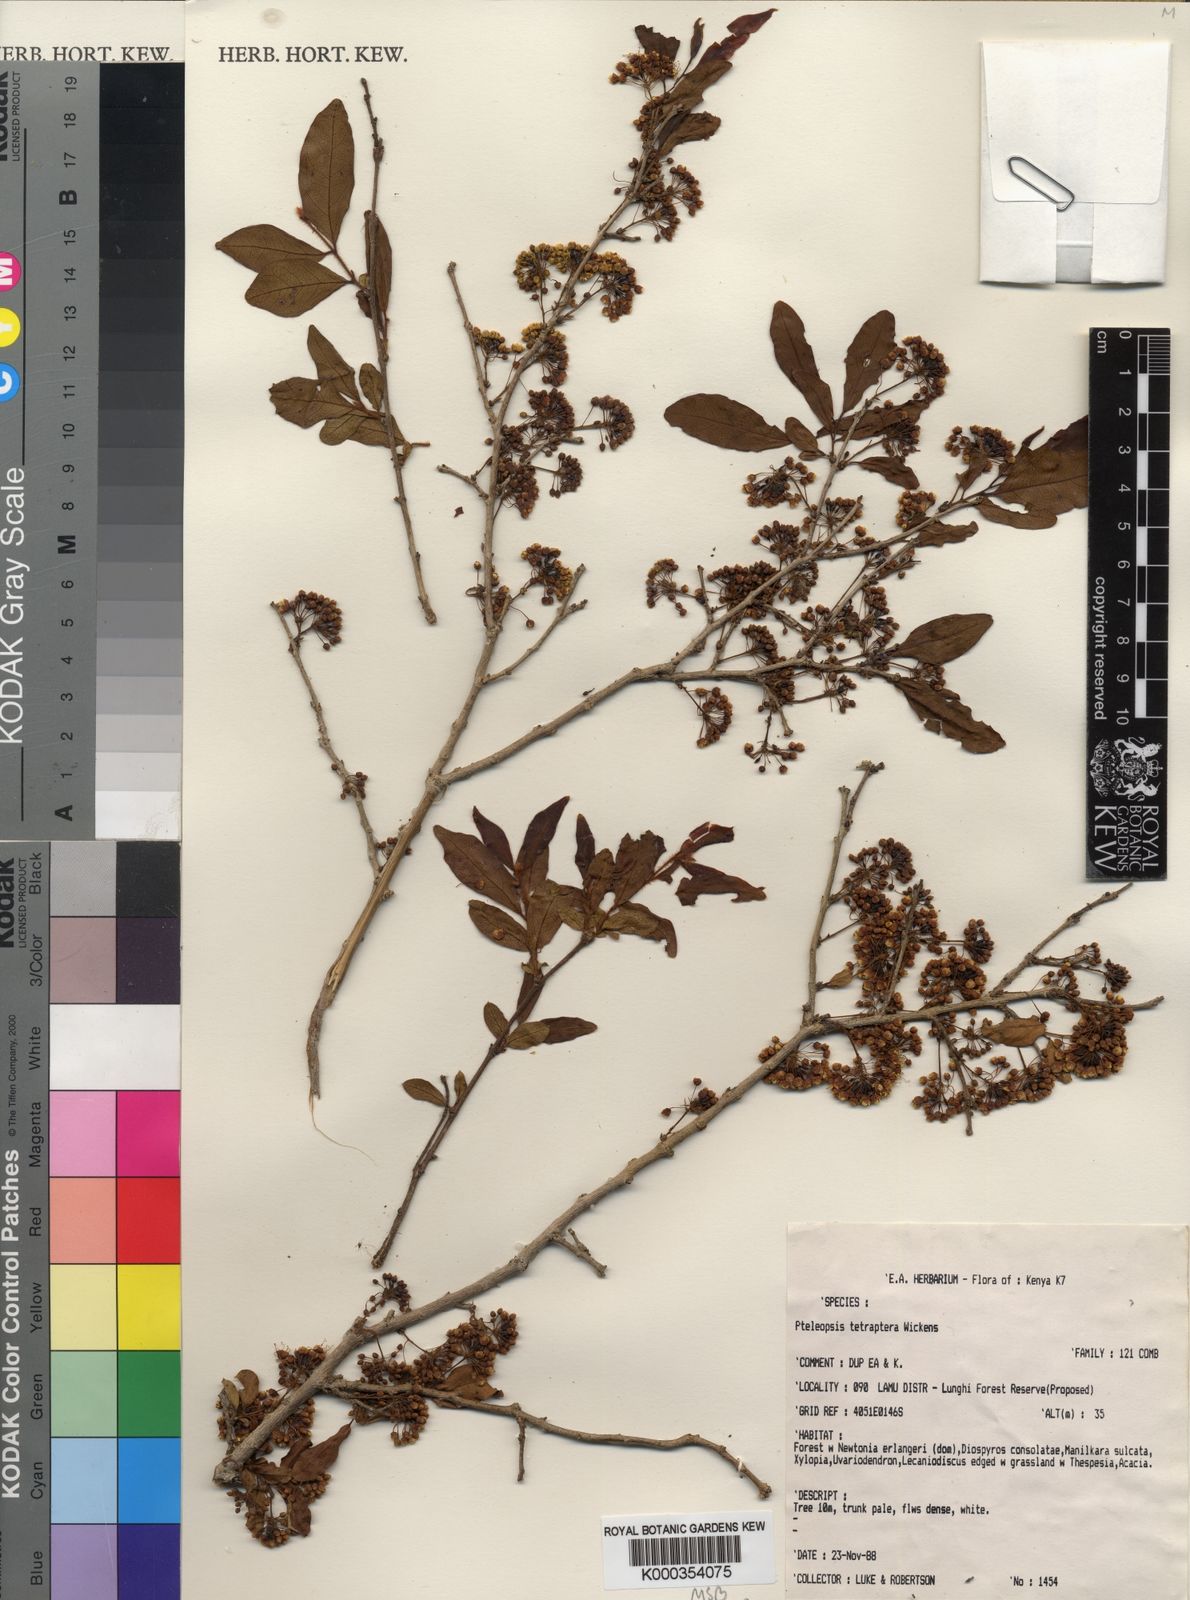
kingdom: Plantae
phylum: Tracheophyta
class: Magnoliopsida
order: Myrtales
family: Combretaceae
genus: Terminalia
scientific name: Terminalia tetraptera
